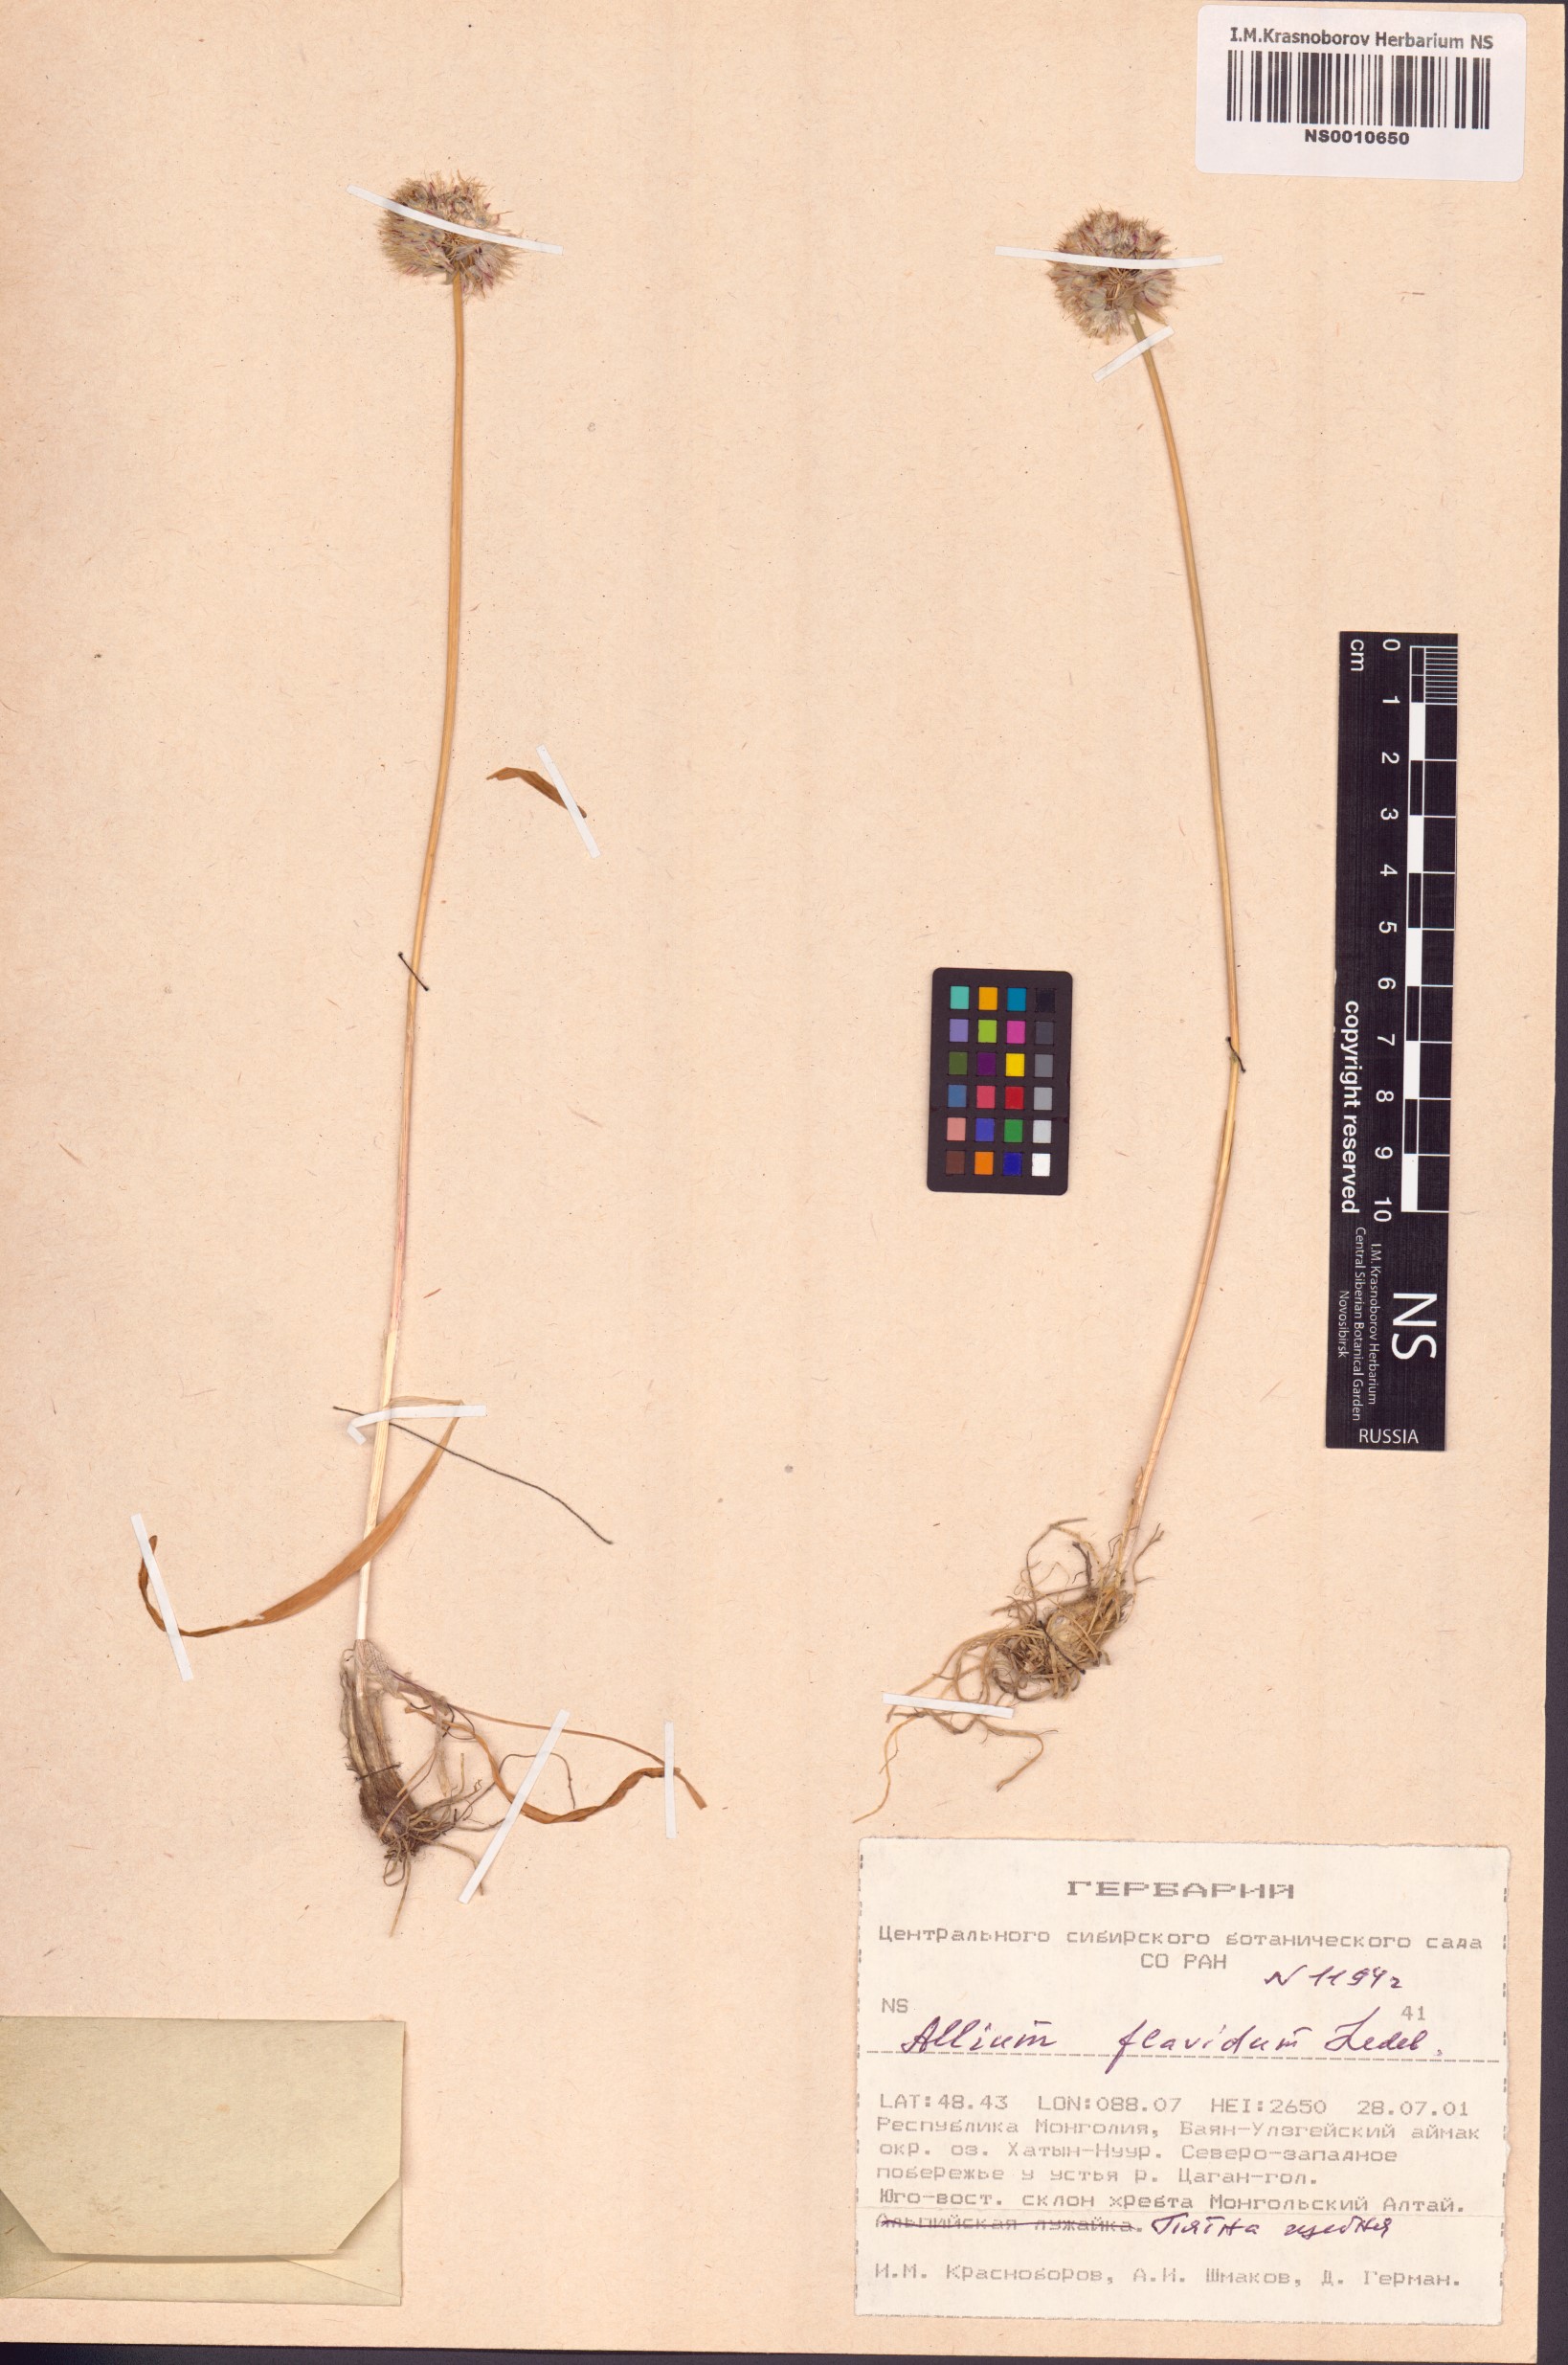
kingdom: Plantae
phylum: Tracheophyta
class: Liliopsida
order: Asparagales
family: Amaryllidaceae
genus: Allium
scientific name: Allium flavidum
